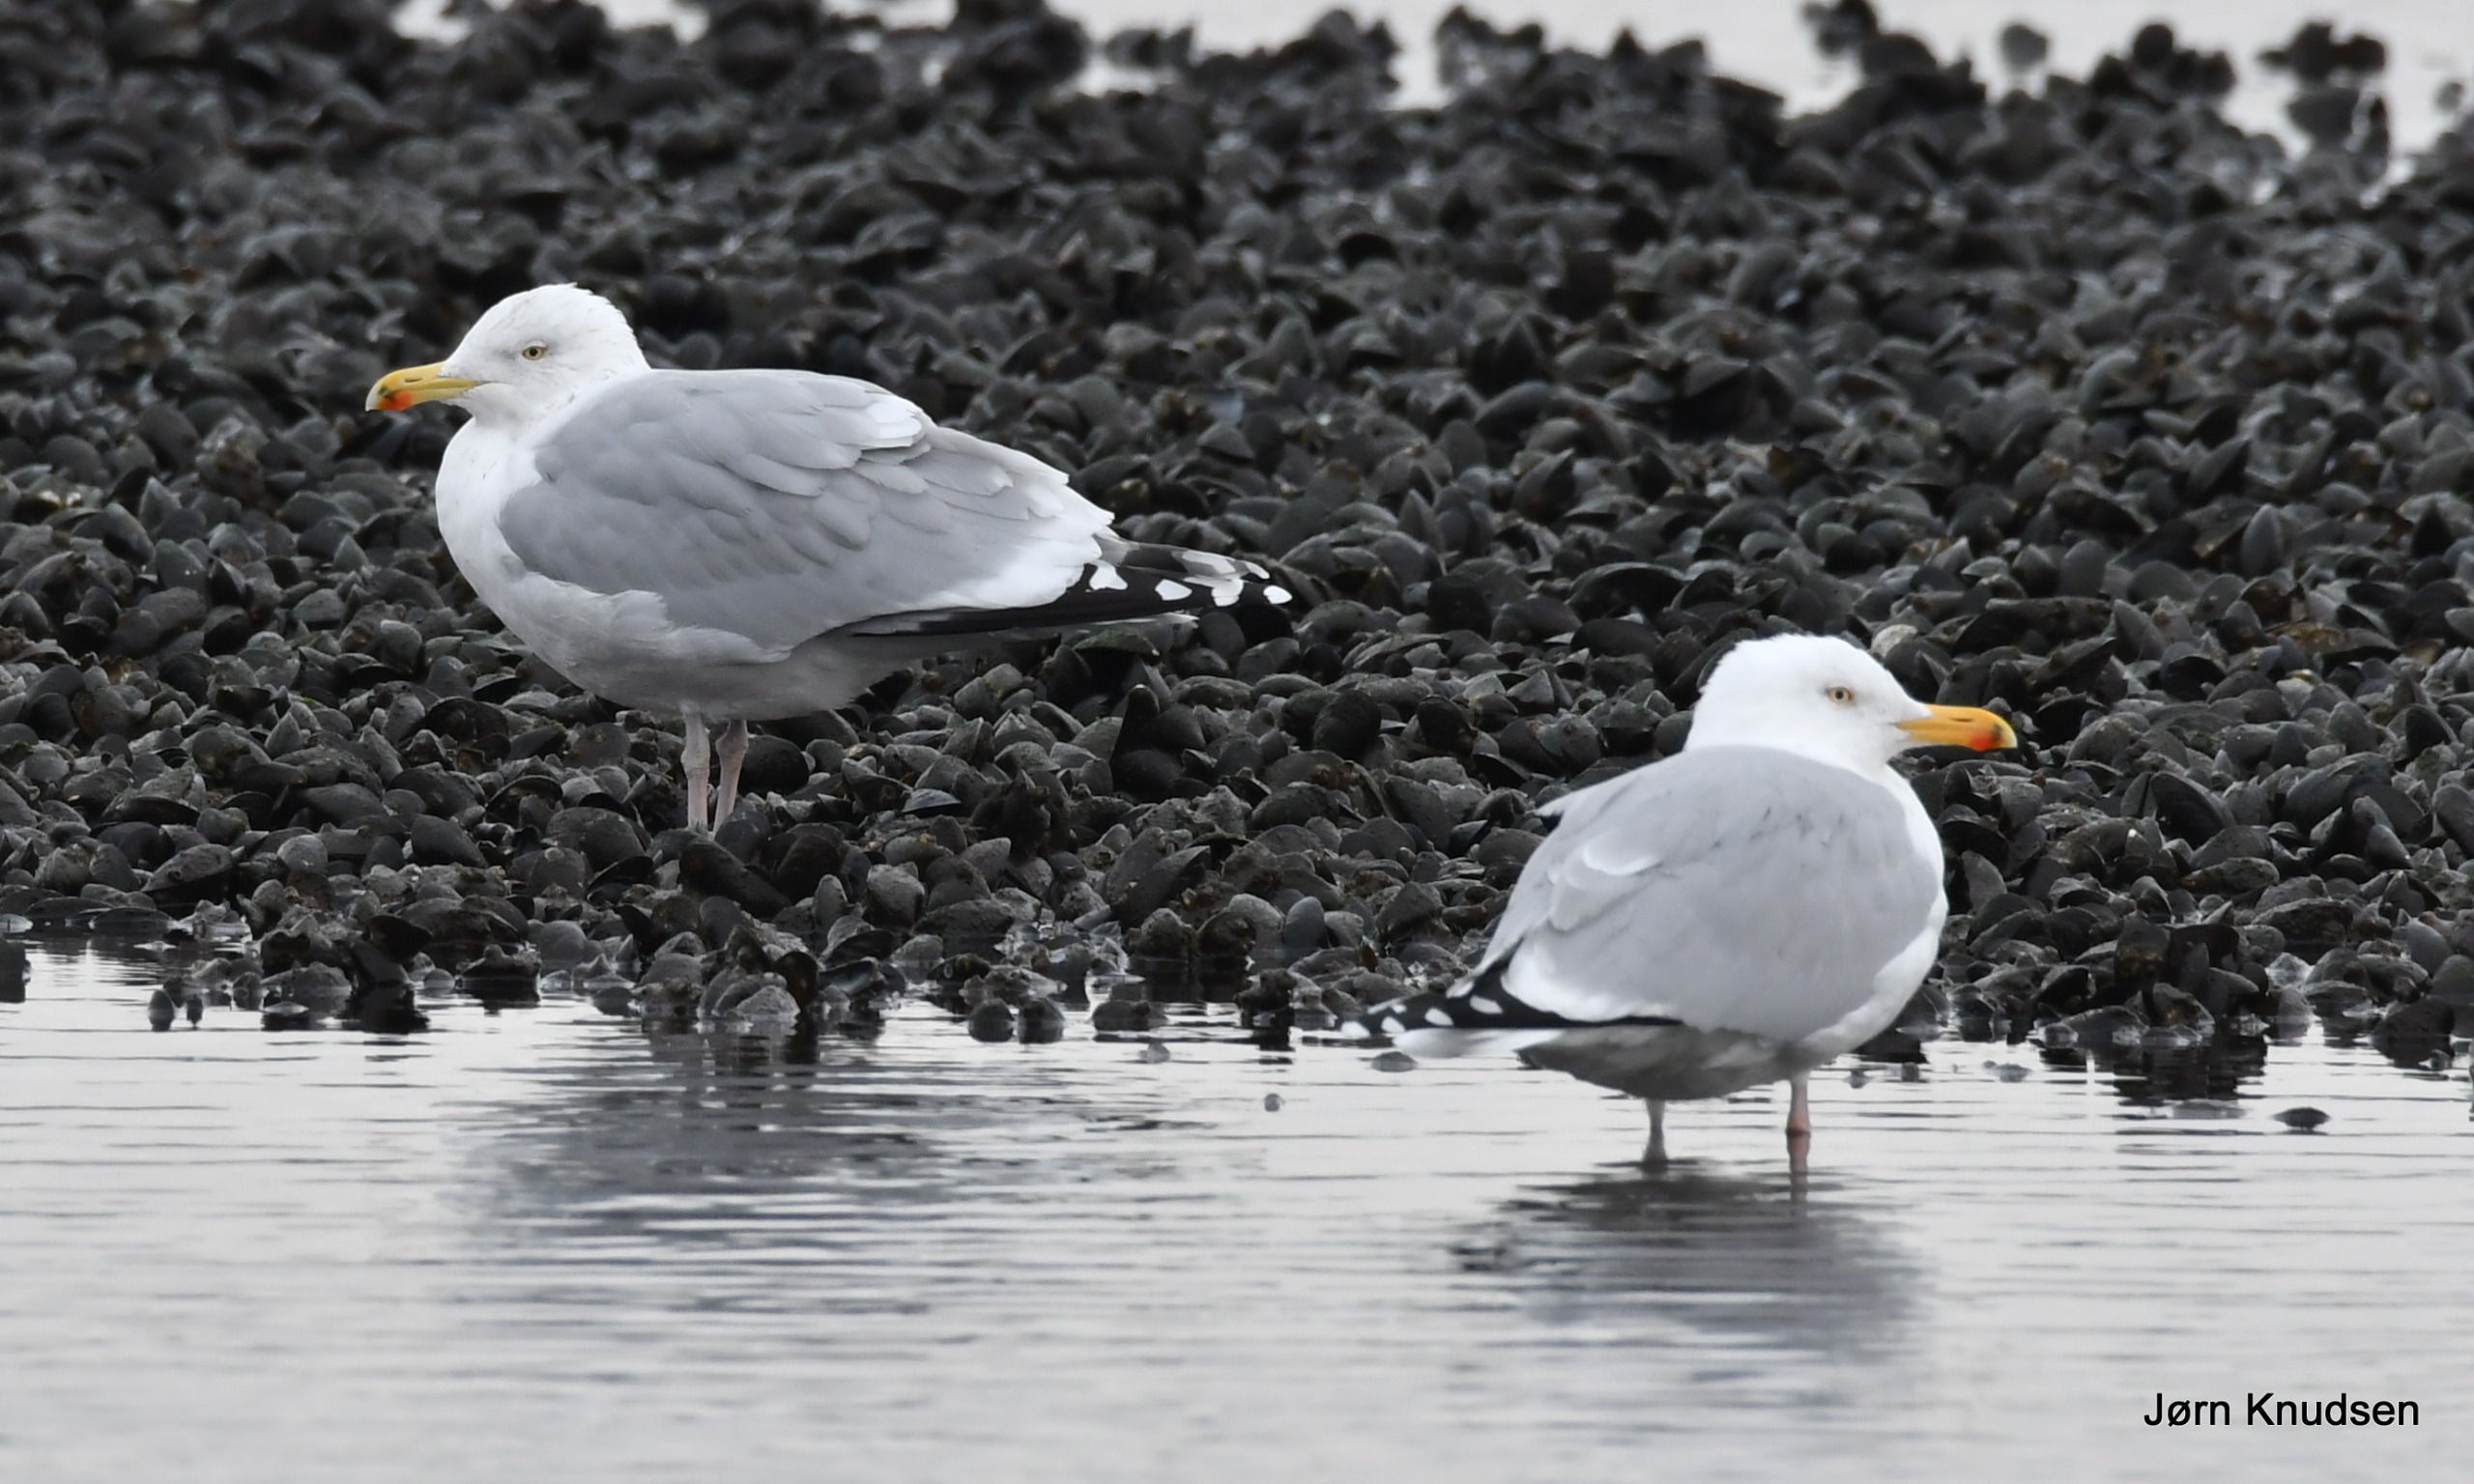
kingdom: Animalia
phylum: Chordata
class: Aves
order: Charadriiformes
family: Laridae
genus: Larus
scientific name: Larus argentatus
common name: Sølvmåge
